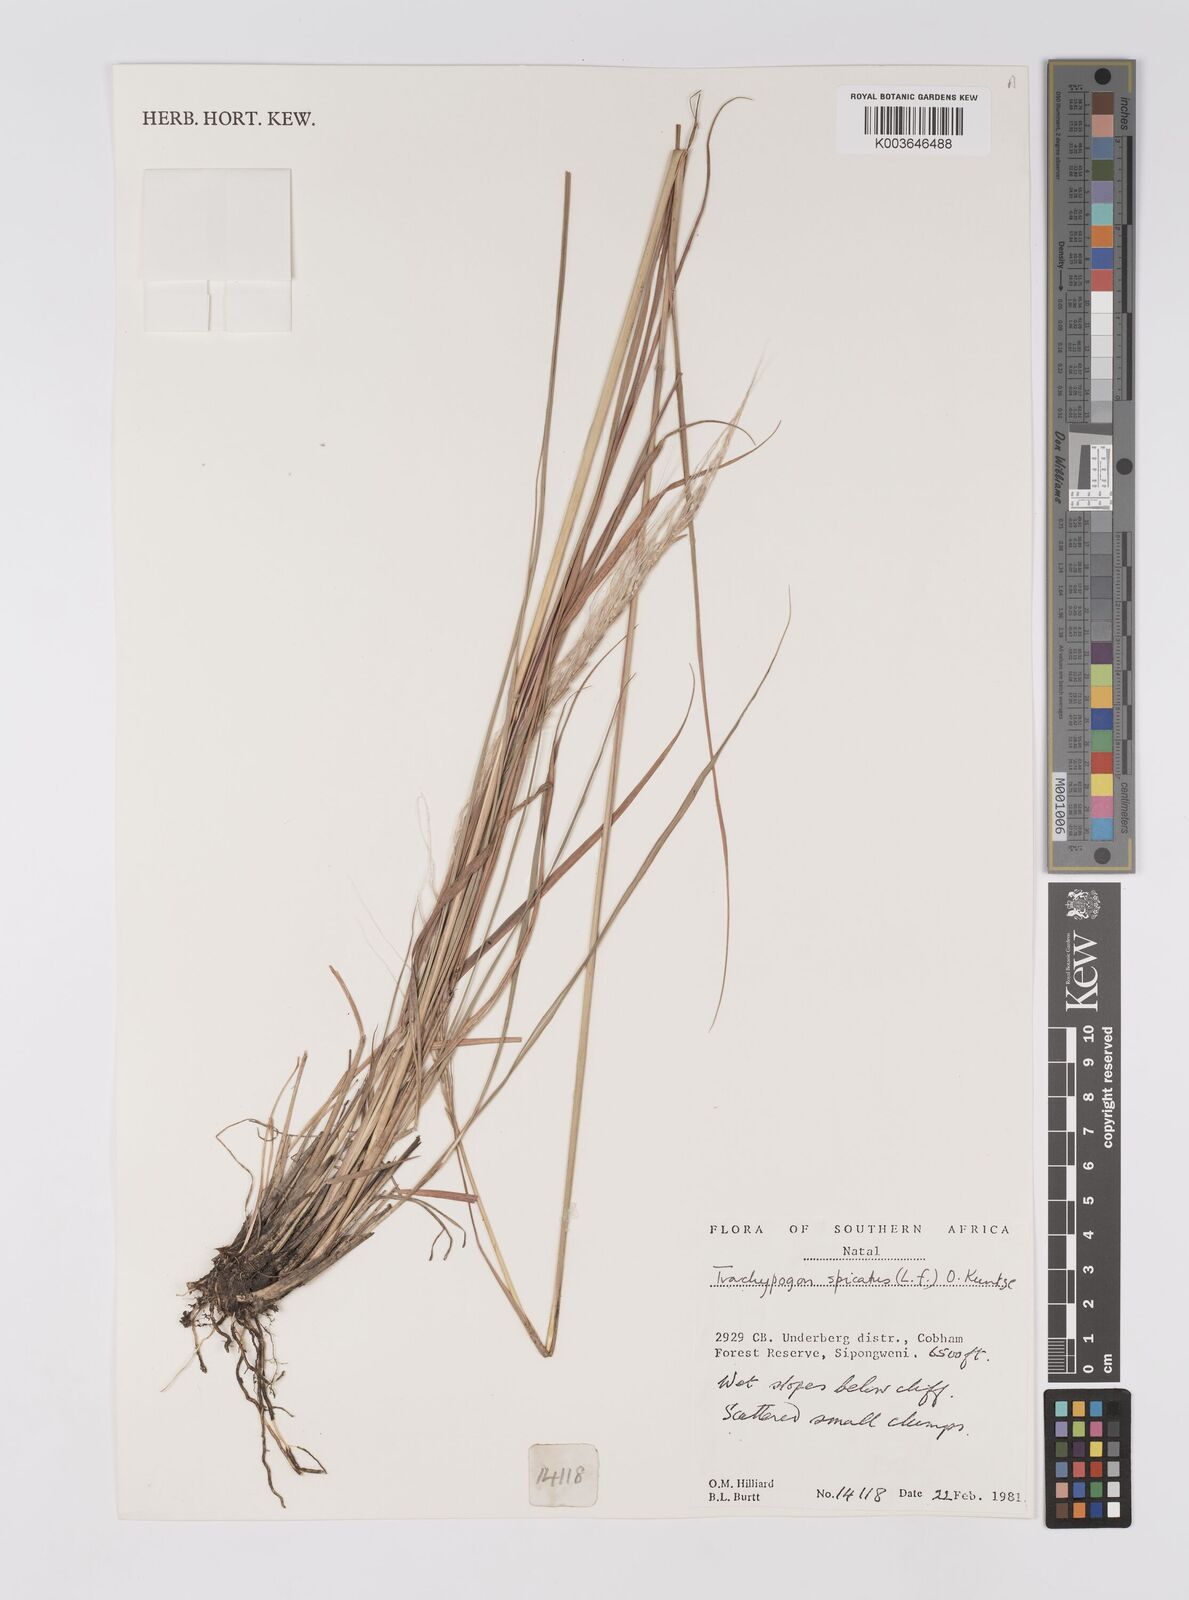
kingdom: Plantae
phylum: Tracheophyta
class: Liliopsida
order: Poales
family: Poaceae
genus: Trachypogon
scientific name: Trachypogon spicatus
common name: Crinkle-awn
